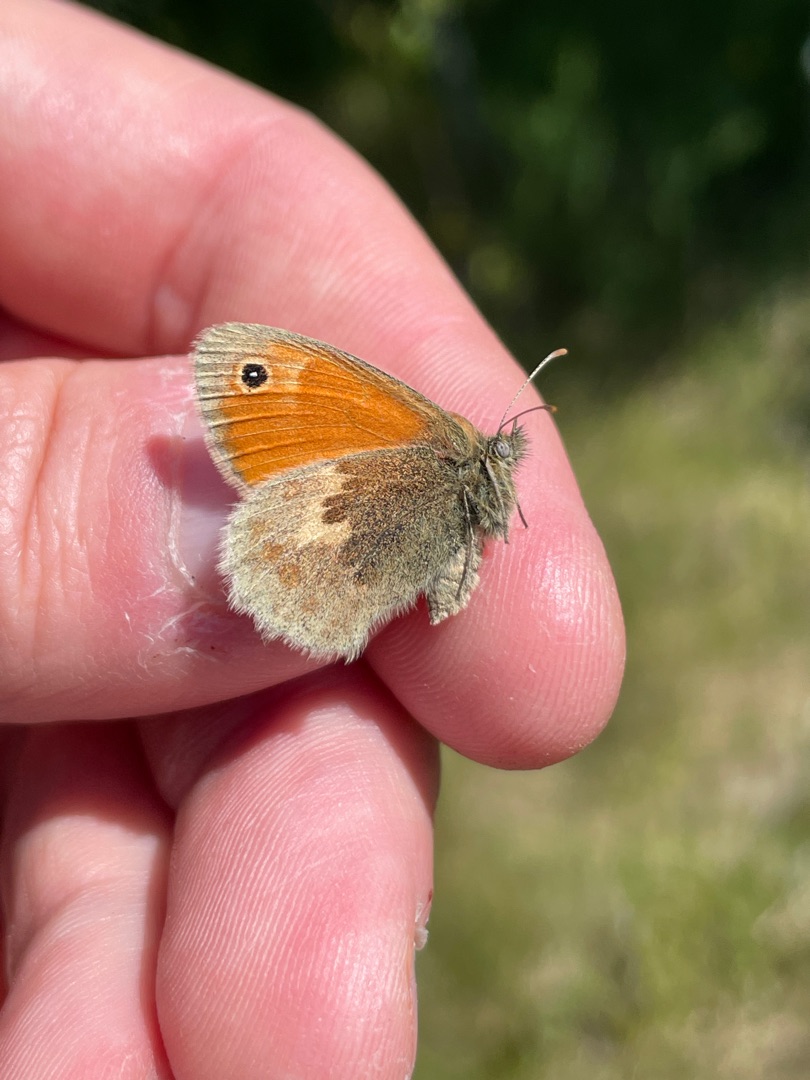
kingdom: Animalia
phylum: Arthropoda
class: Insecta
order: Lepidoptera
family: Nymphalidae
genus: Coenonympha
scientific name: Coenonympha pamphilus
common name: Okkergul randøje
